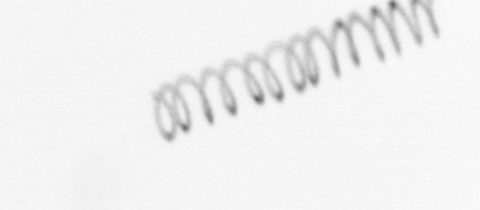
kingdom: Chromista
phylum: Ochrophyta
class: Bacillariophyceae
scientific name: Bacillariophyceae
